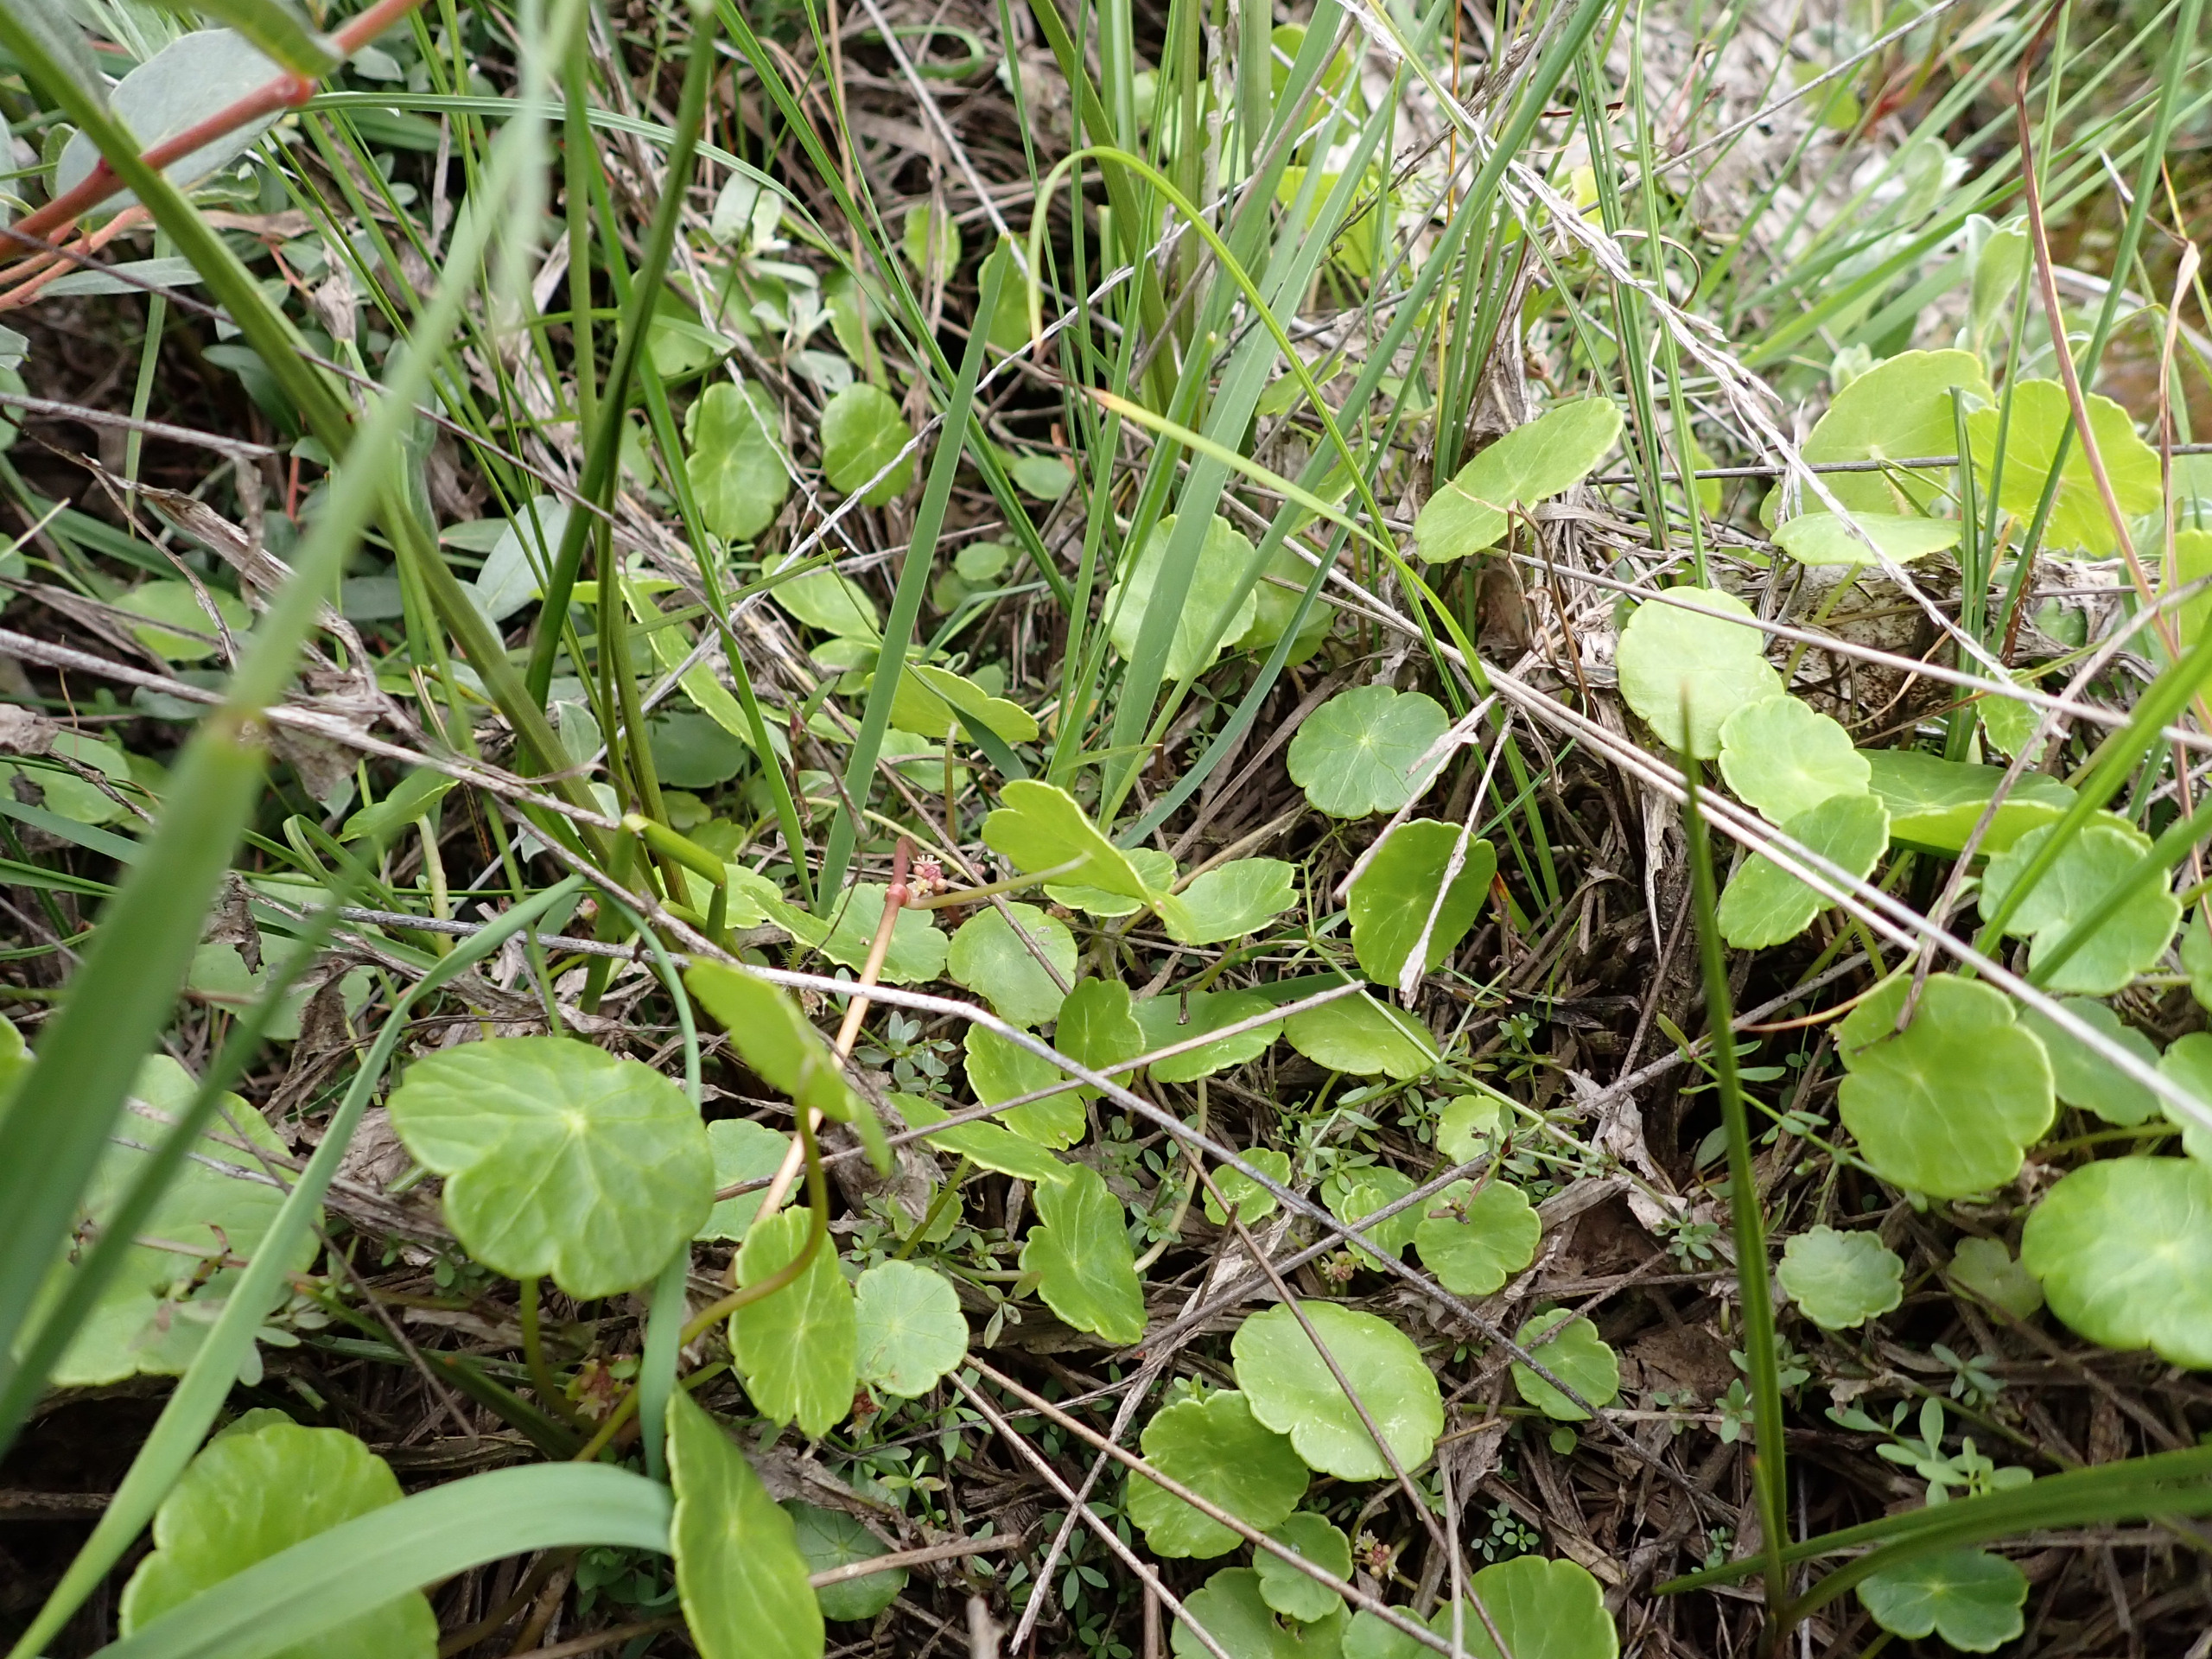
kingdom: Plantae
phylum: Tracheophyta
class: Magnoliopsida
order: Apiales
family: Araliaceae
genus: Hydrocotyle
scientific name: Hydrocotyle vulgaris
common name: Vandnavle
